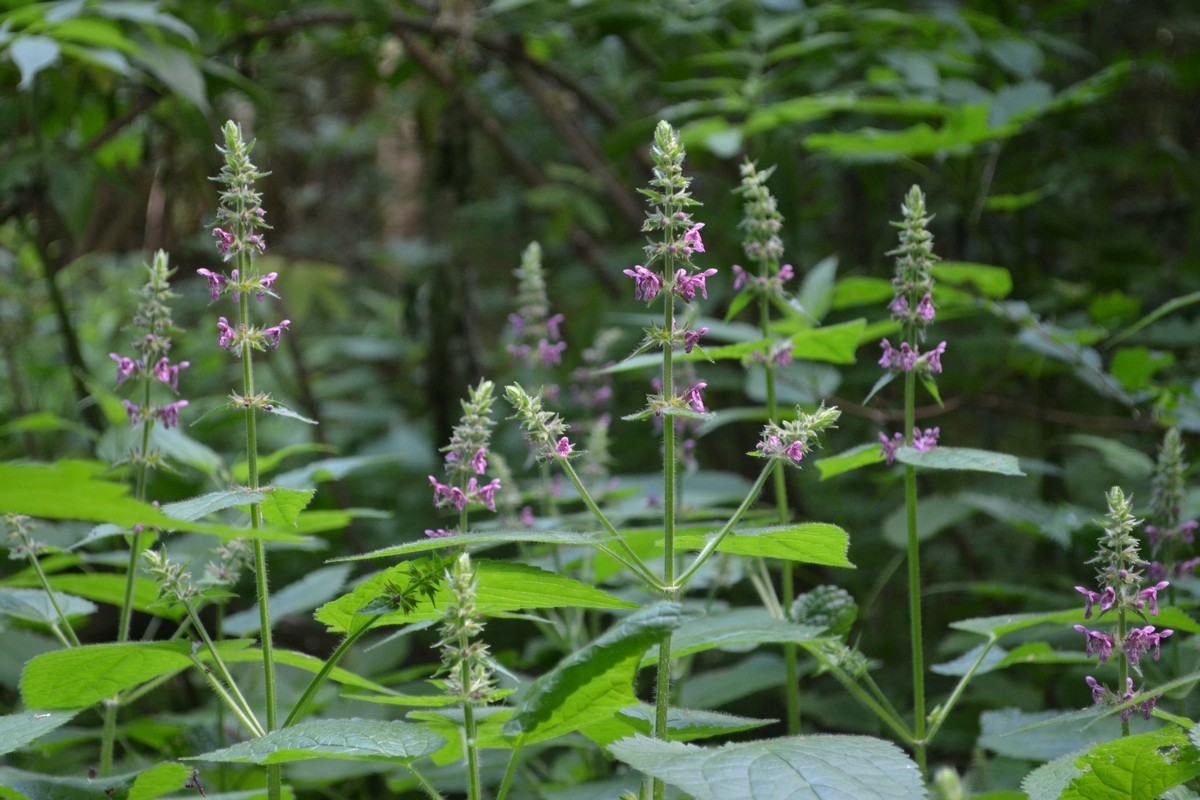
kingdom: Plantae
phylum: Tracheophyta
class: Magnoliopsida
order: Lamiales
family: Lamiaceae
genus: Clinopodium
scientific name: Clinopodium vulgare
